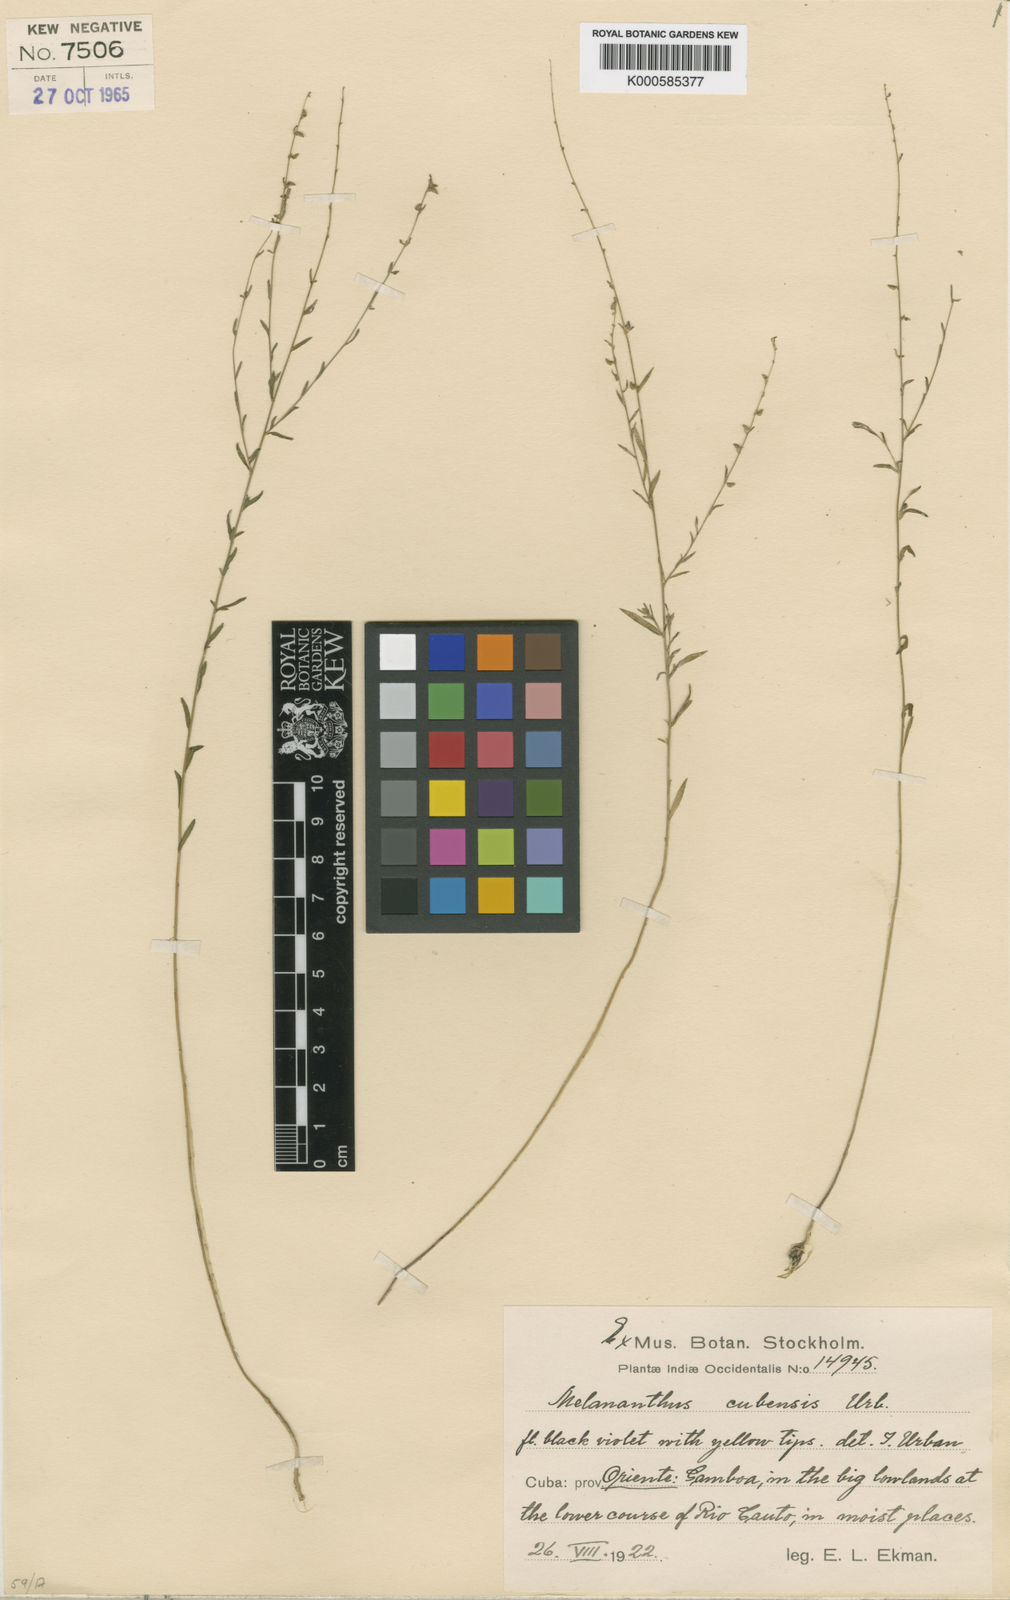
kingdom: Plantae
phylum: Tracheophyta
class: Magnoliopsida
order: Solanales
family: Solanaceae
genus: Melananthus
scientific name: Melananthus cubensis
